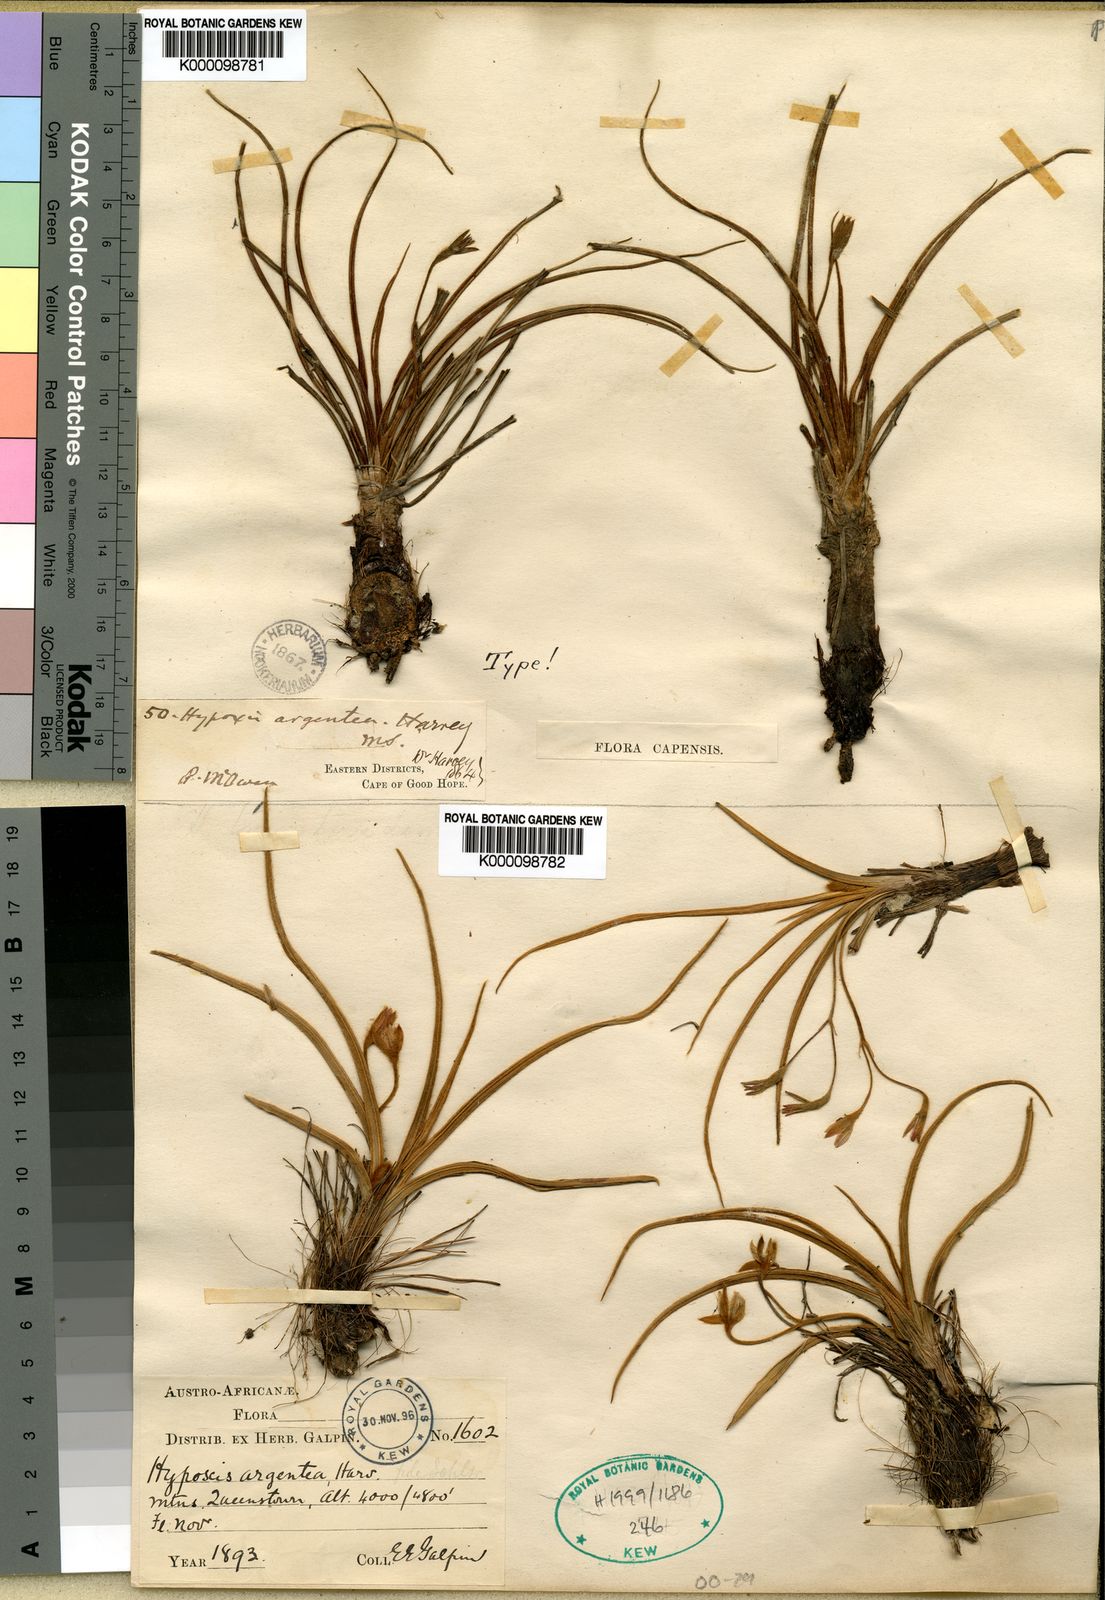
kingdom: Plantae
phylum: Tracheophyta
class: Liliopsida
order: Asparagales
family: Hypoxidaceae
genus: Hypoxis
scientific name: Hypoxis
